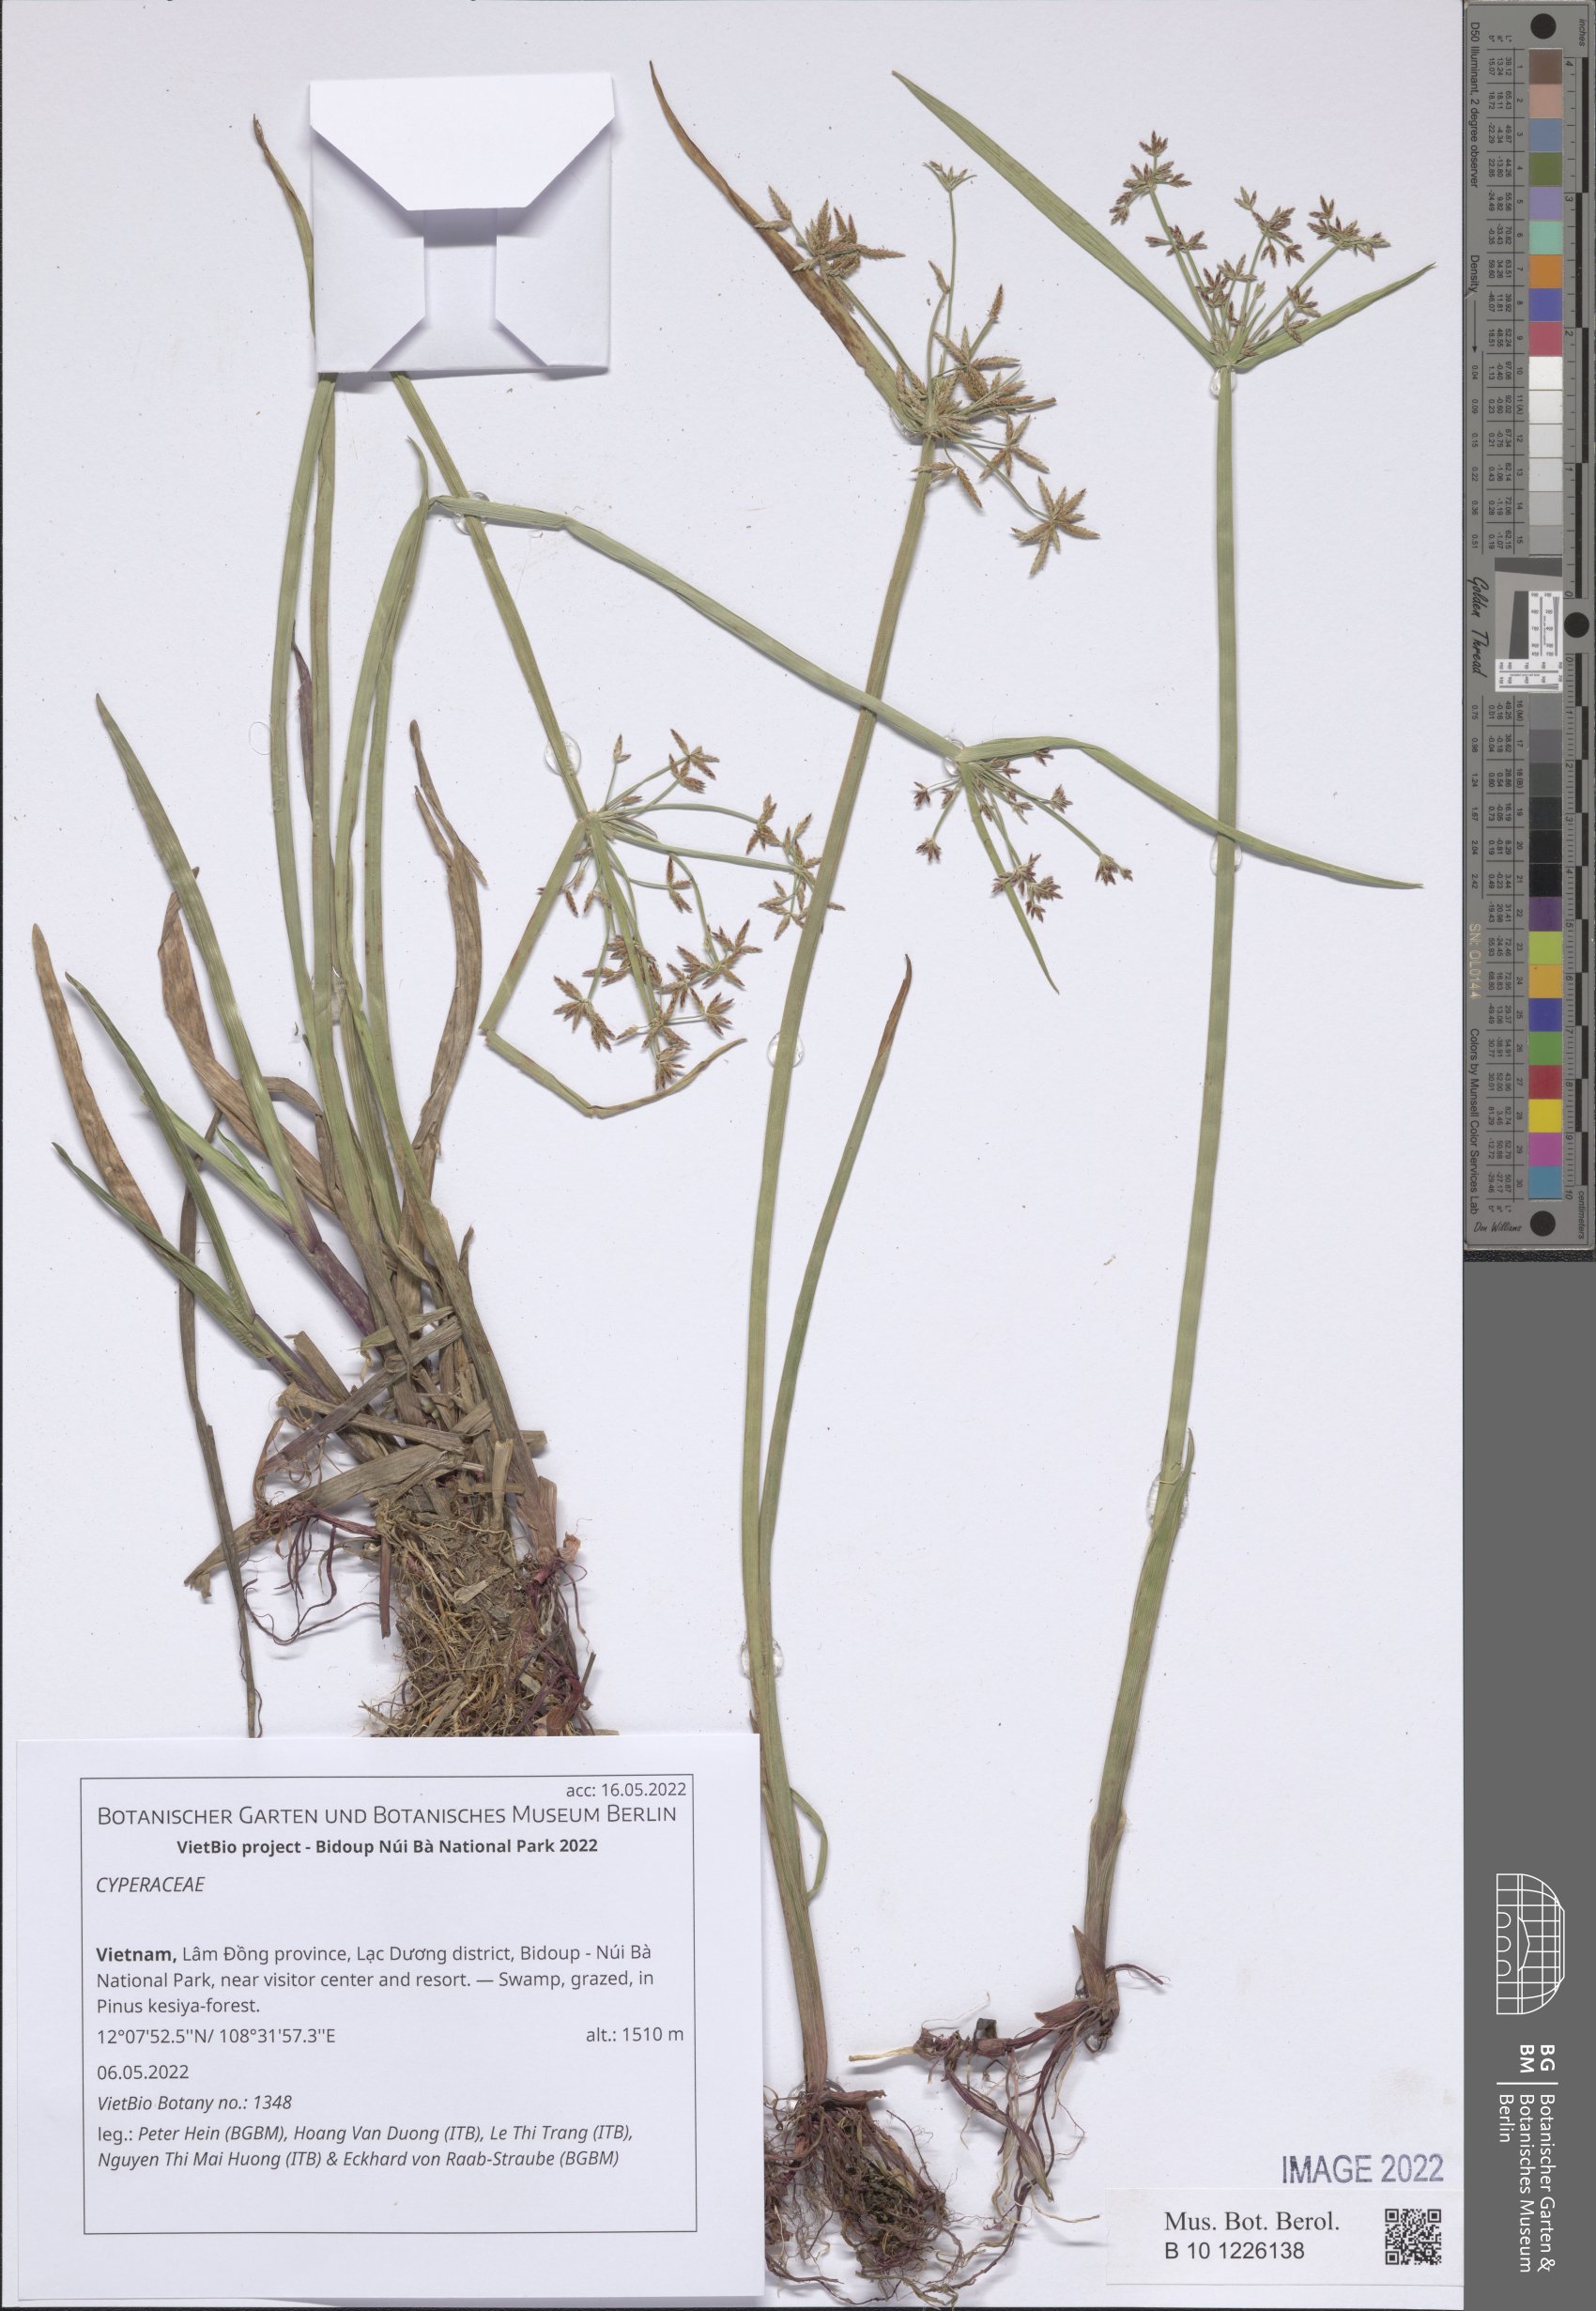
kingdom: Plantae
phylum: Tracheophyta
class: Liliopsida
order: Poales
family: Cyperaceae
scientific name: Cyperaceae
